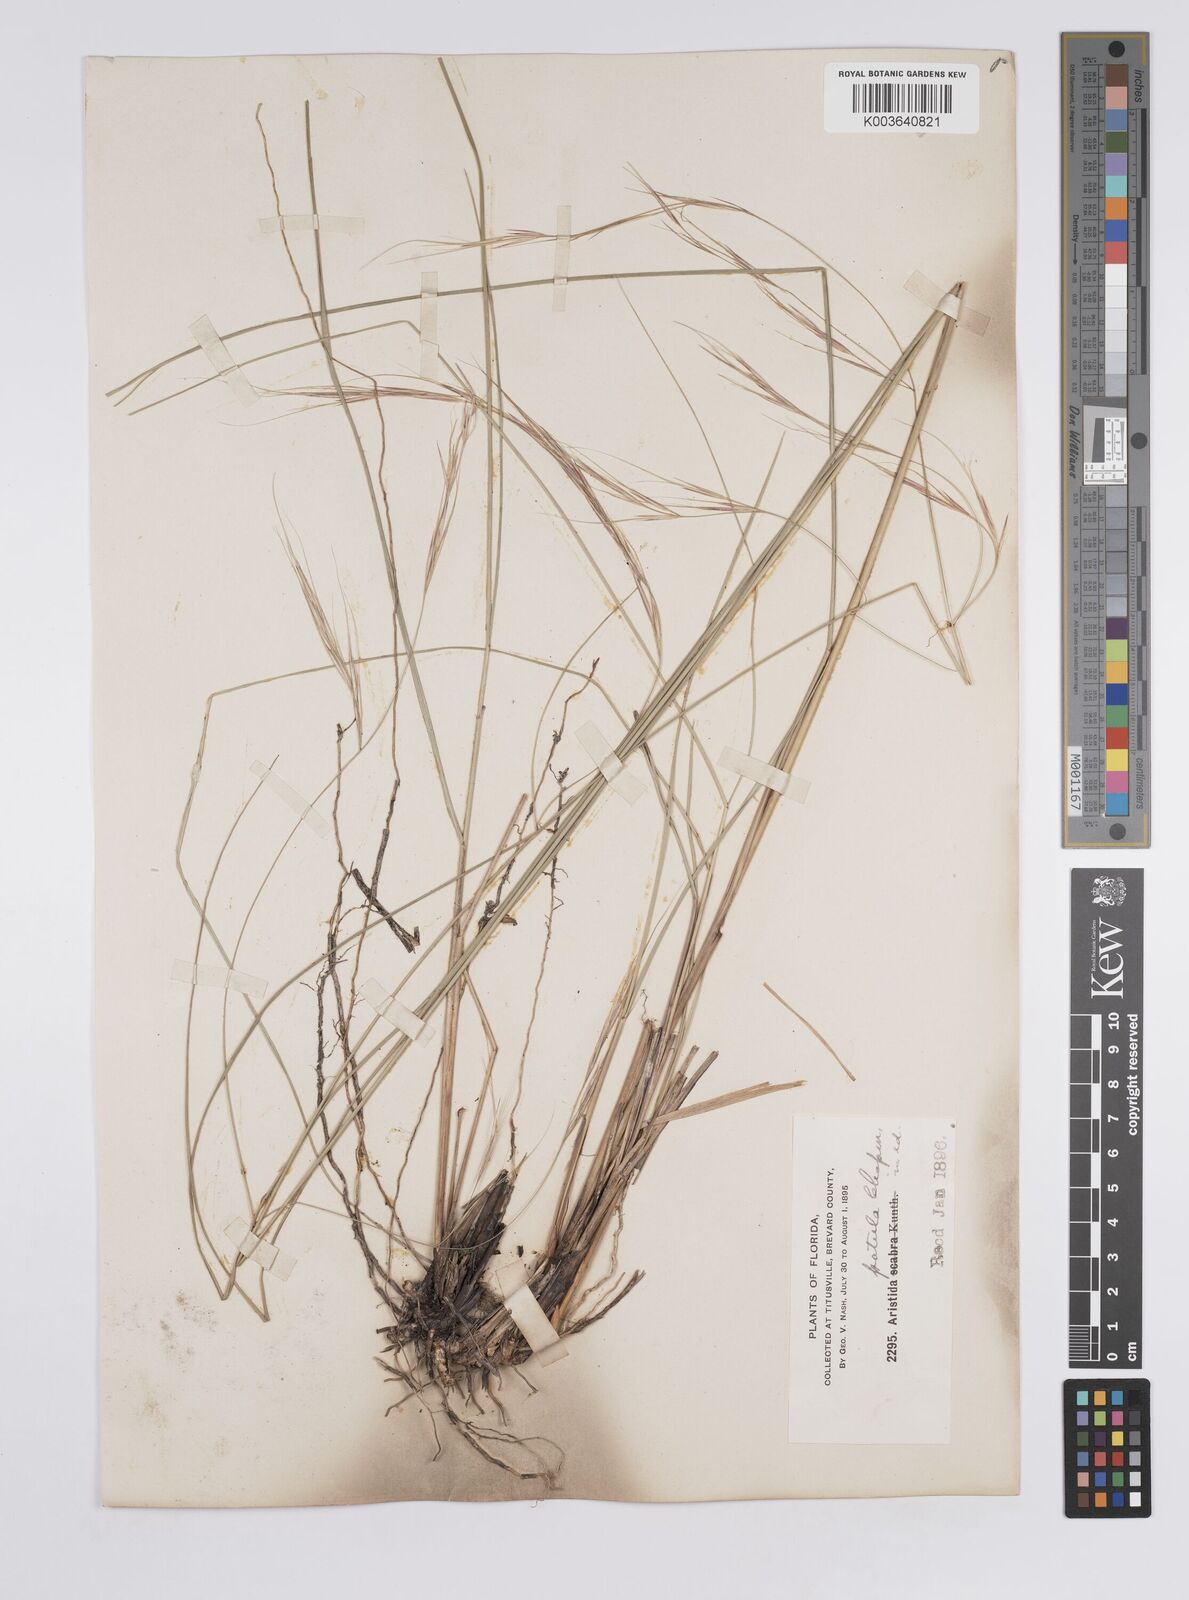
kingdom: Plantae
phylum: Tracheophyta
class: Liliopsida
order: Poales
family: Poaceae
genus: Aristida
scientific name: Aristida patula
